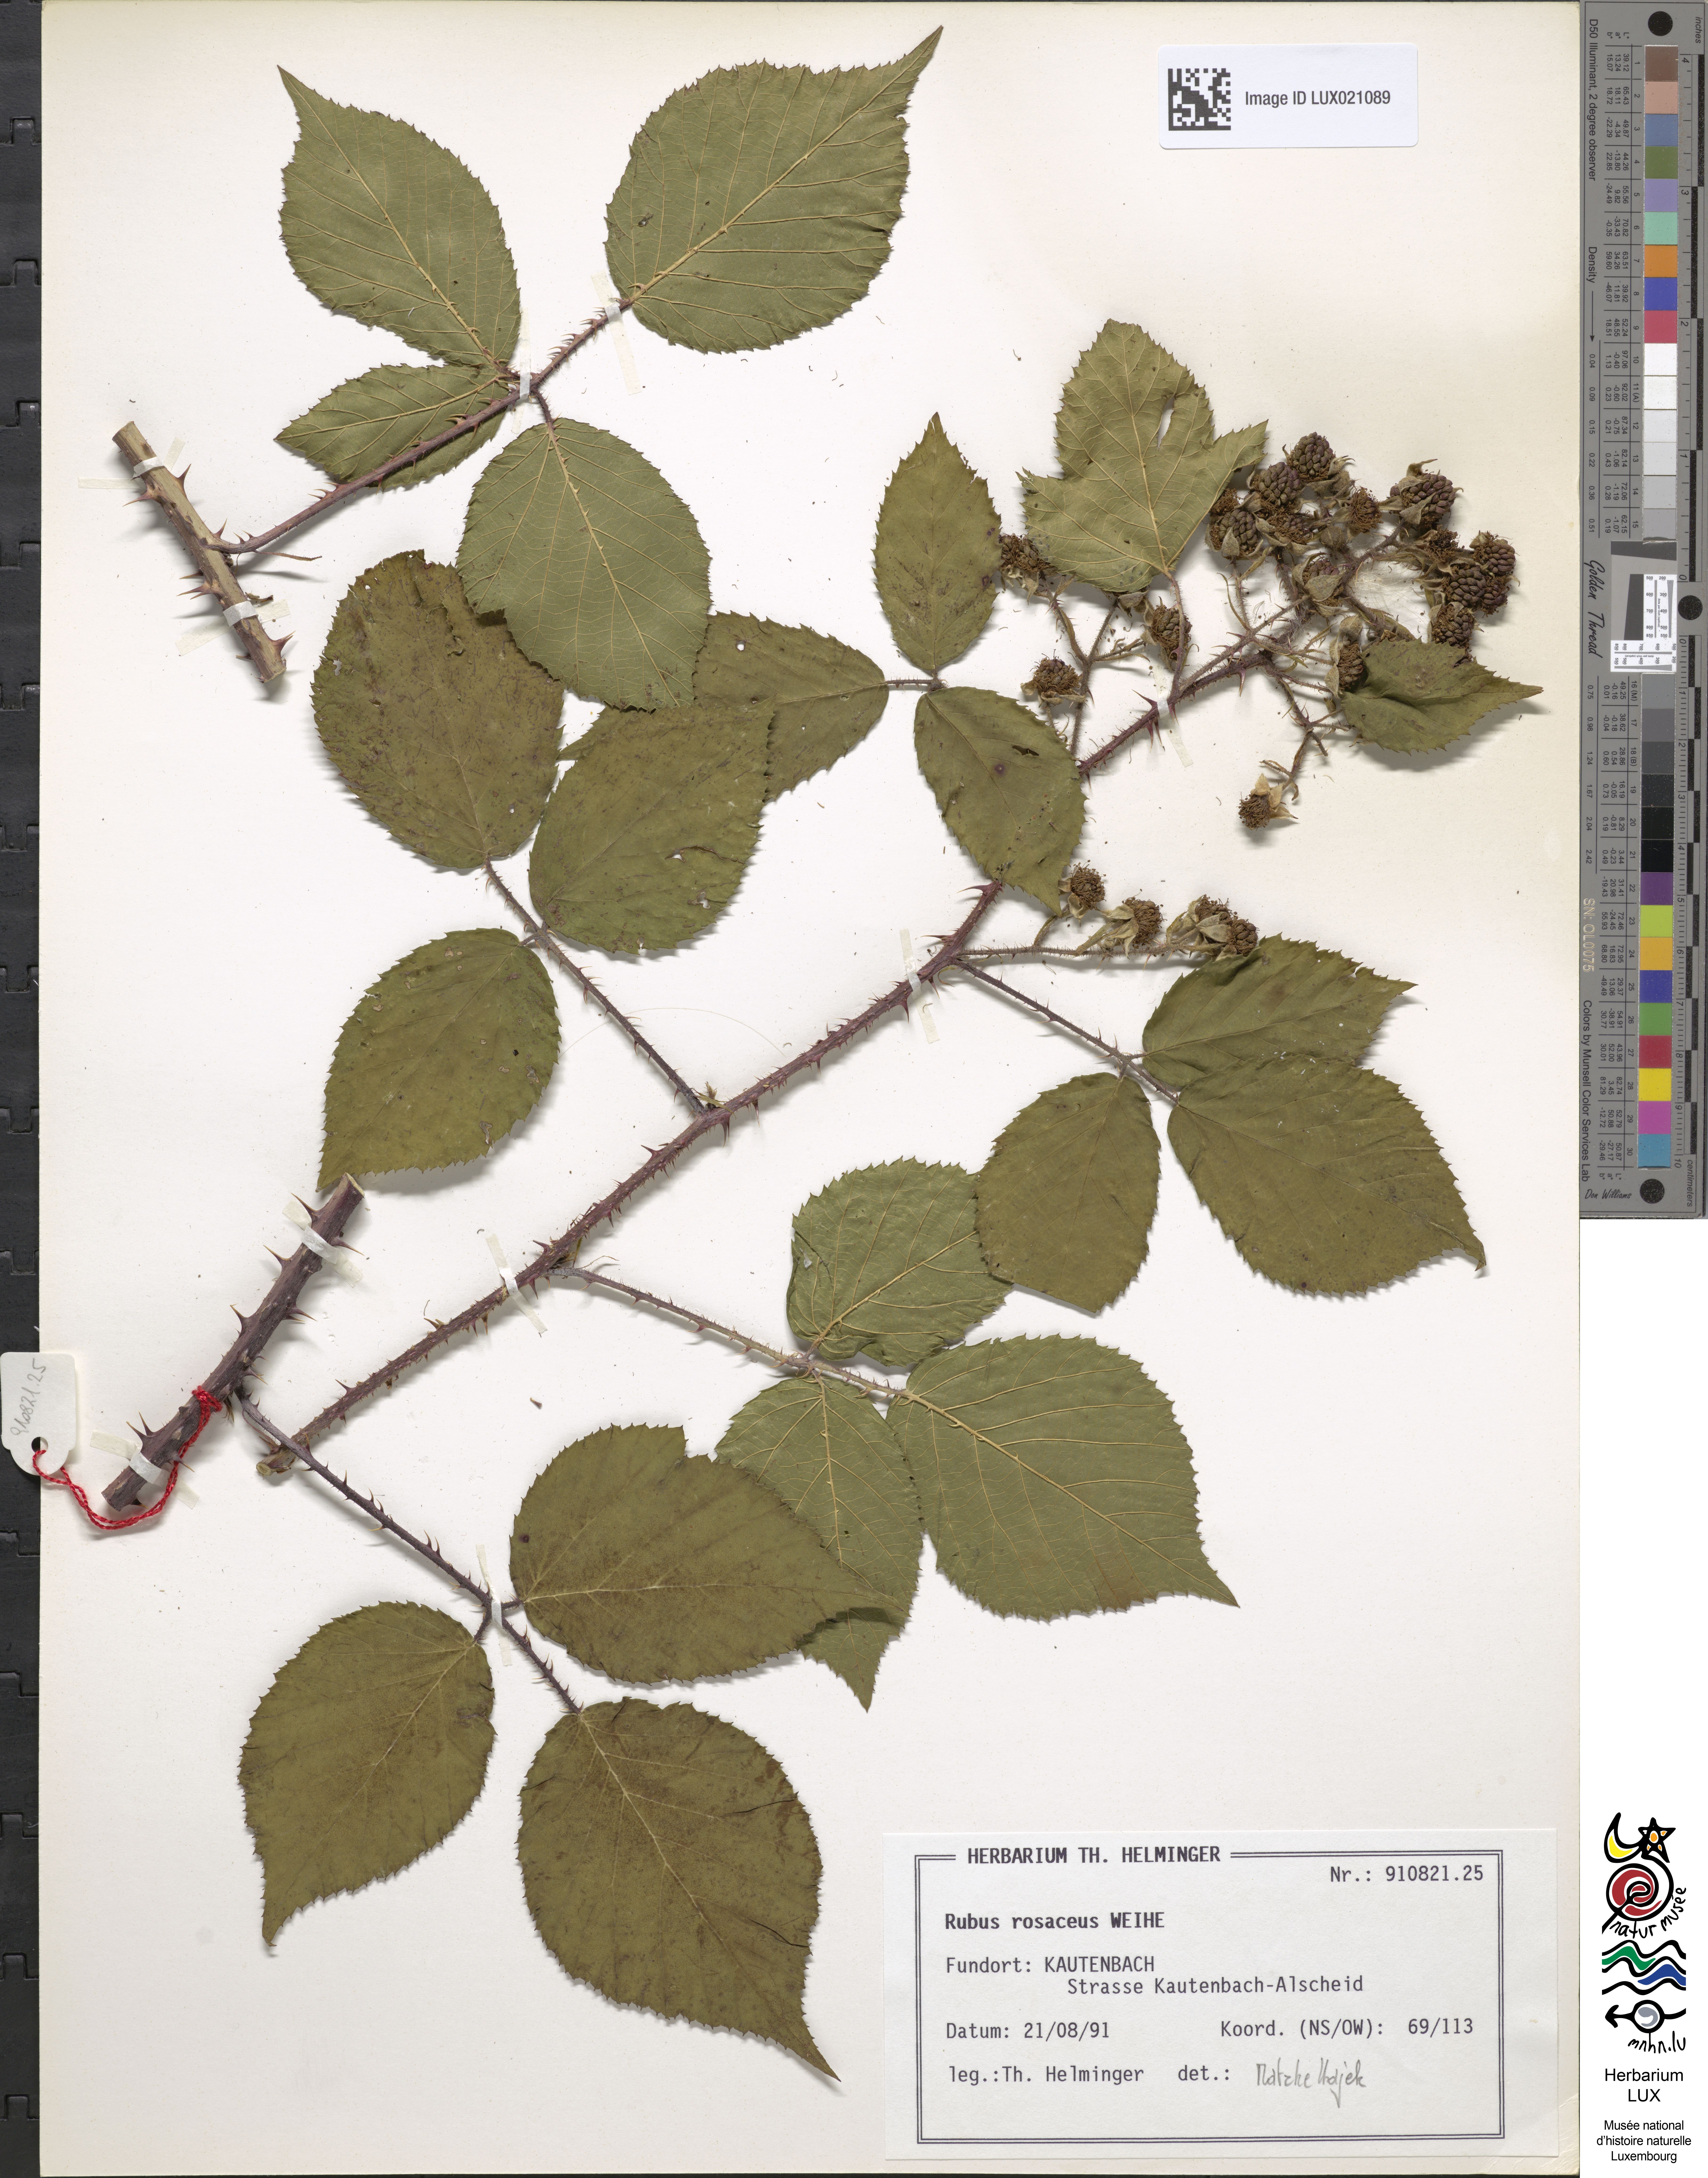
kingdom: Plantae
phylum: Tracheophyta
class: Magnoliopsida
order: Rosales
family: Rosaceae
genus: Rubus
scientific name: Rubus rosaceus
